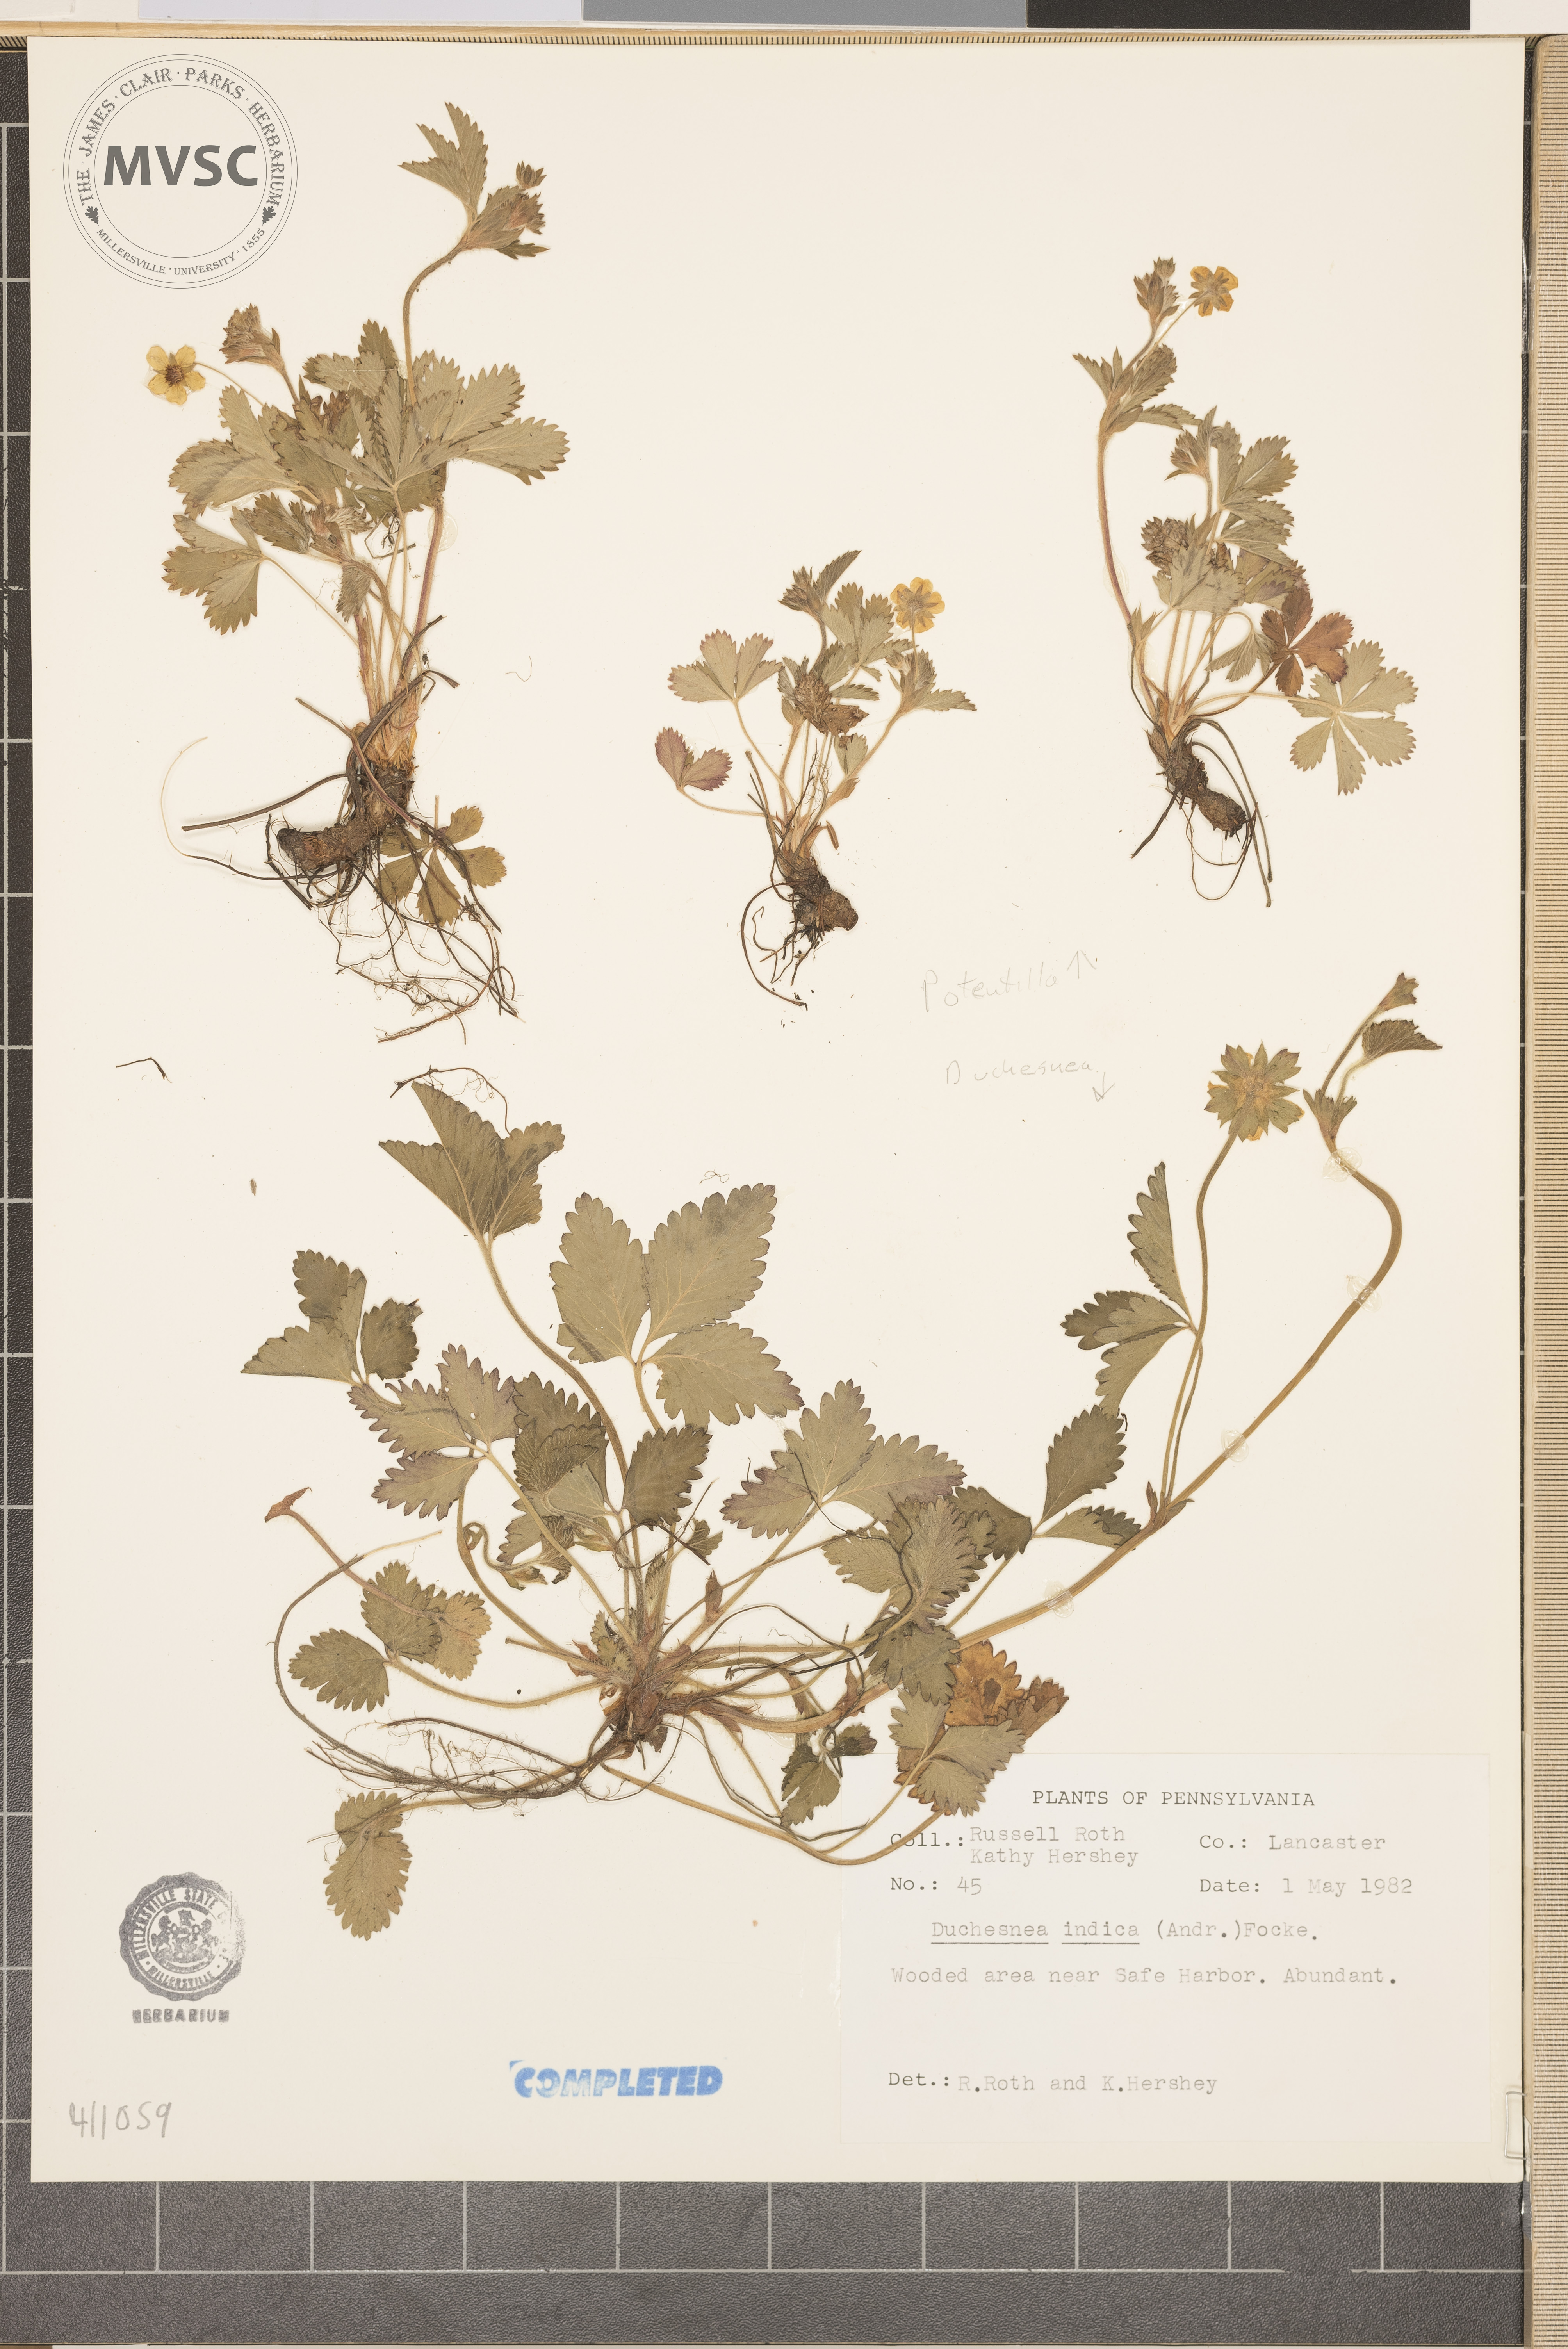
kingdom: Plantae
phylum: Tracheophyta
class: Magnoliopsida
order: Rosales
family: Rosaceae
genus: Potentilla
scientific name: Potentilla indica
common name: Yellow-flowered strawberry
